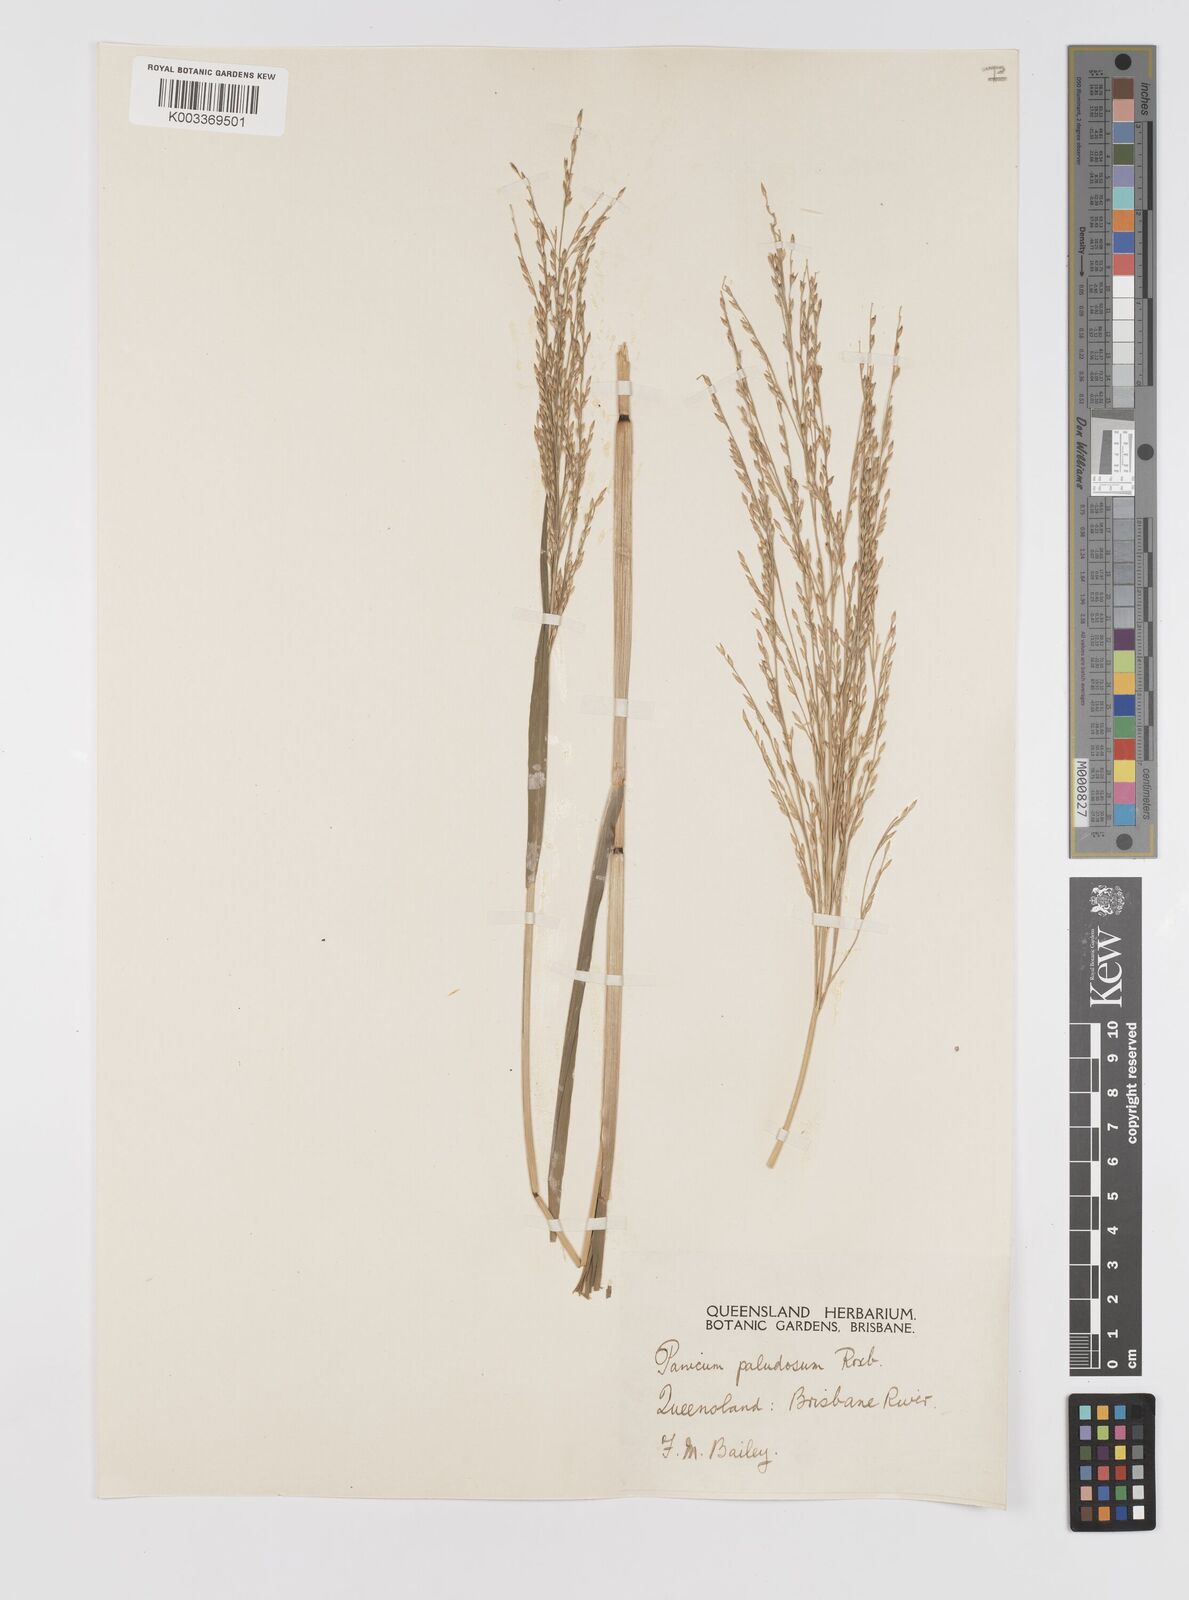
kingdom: Plantae
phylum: Tracheophyta
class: Liliopsida
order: Poales
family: Poaceae
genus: Louisiella
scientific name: Louisiella paludosa
